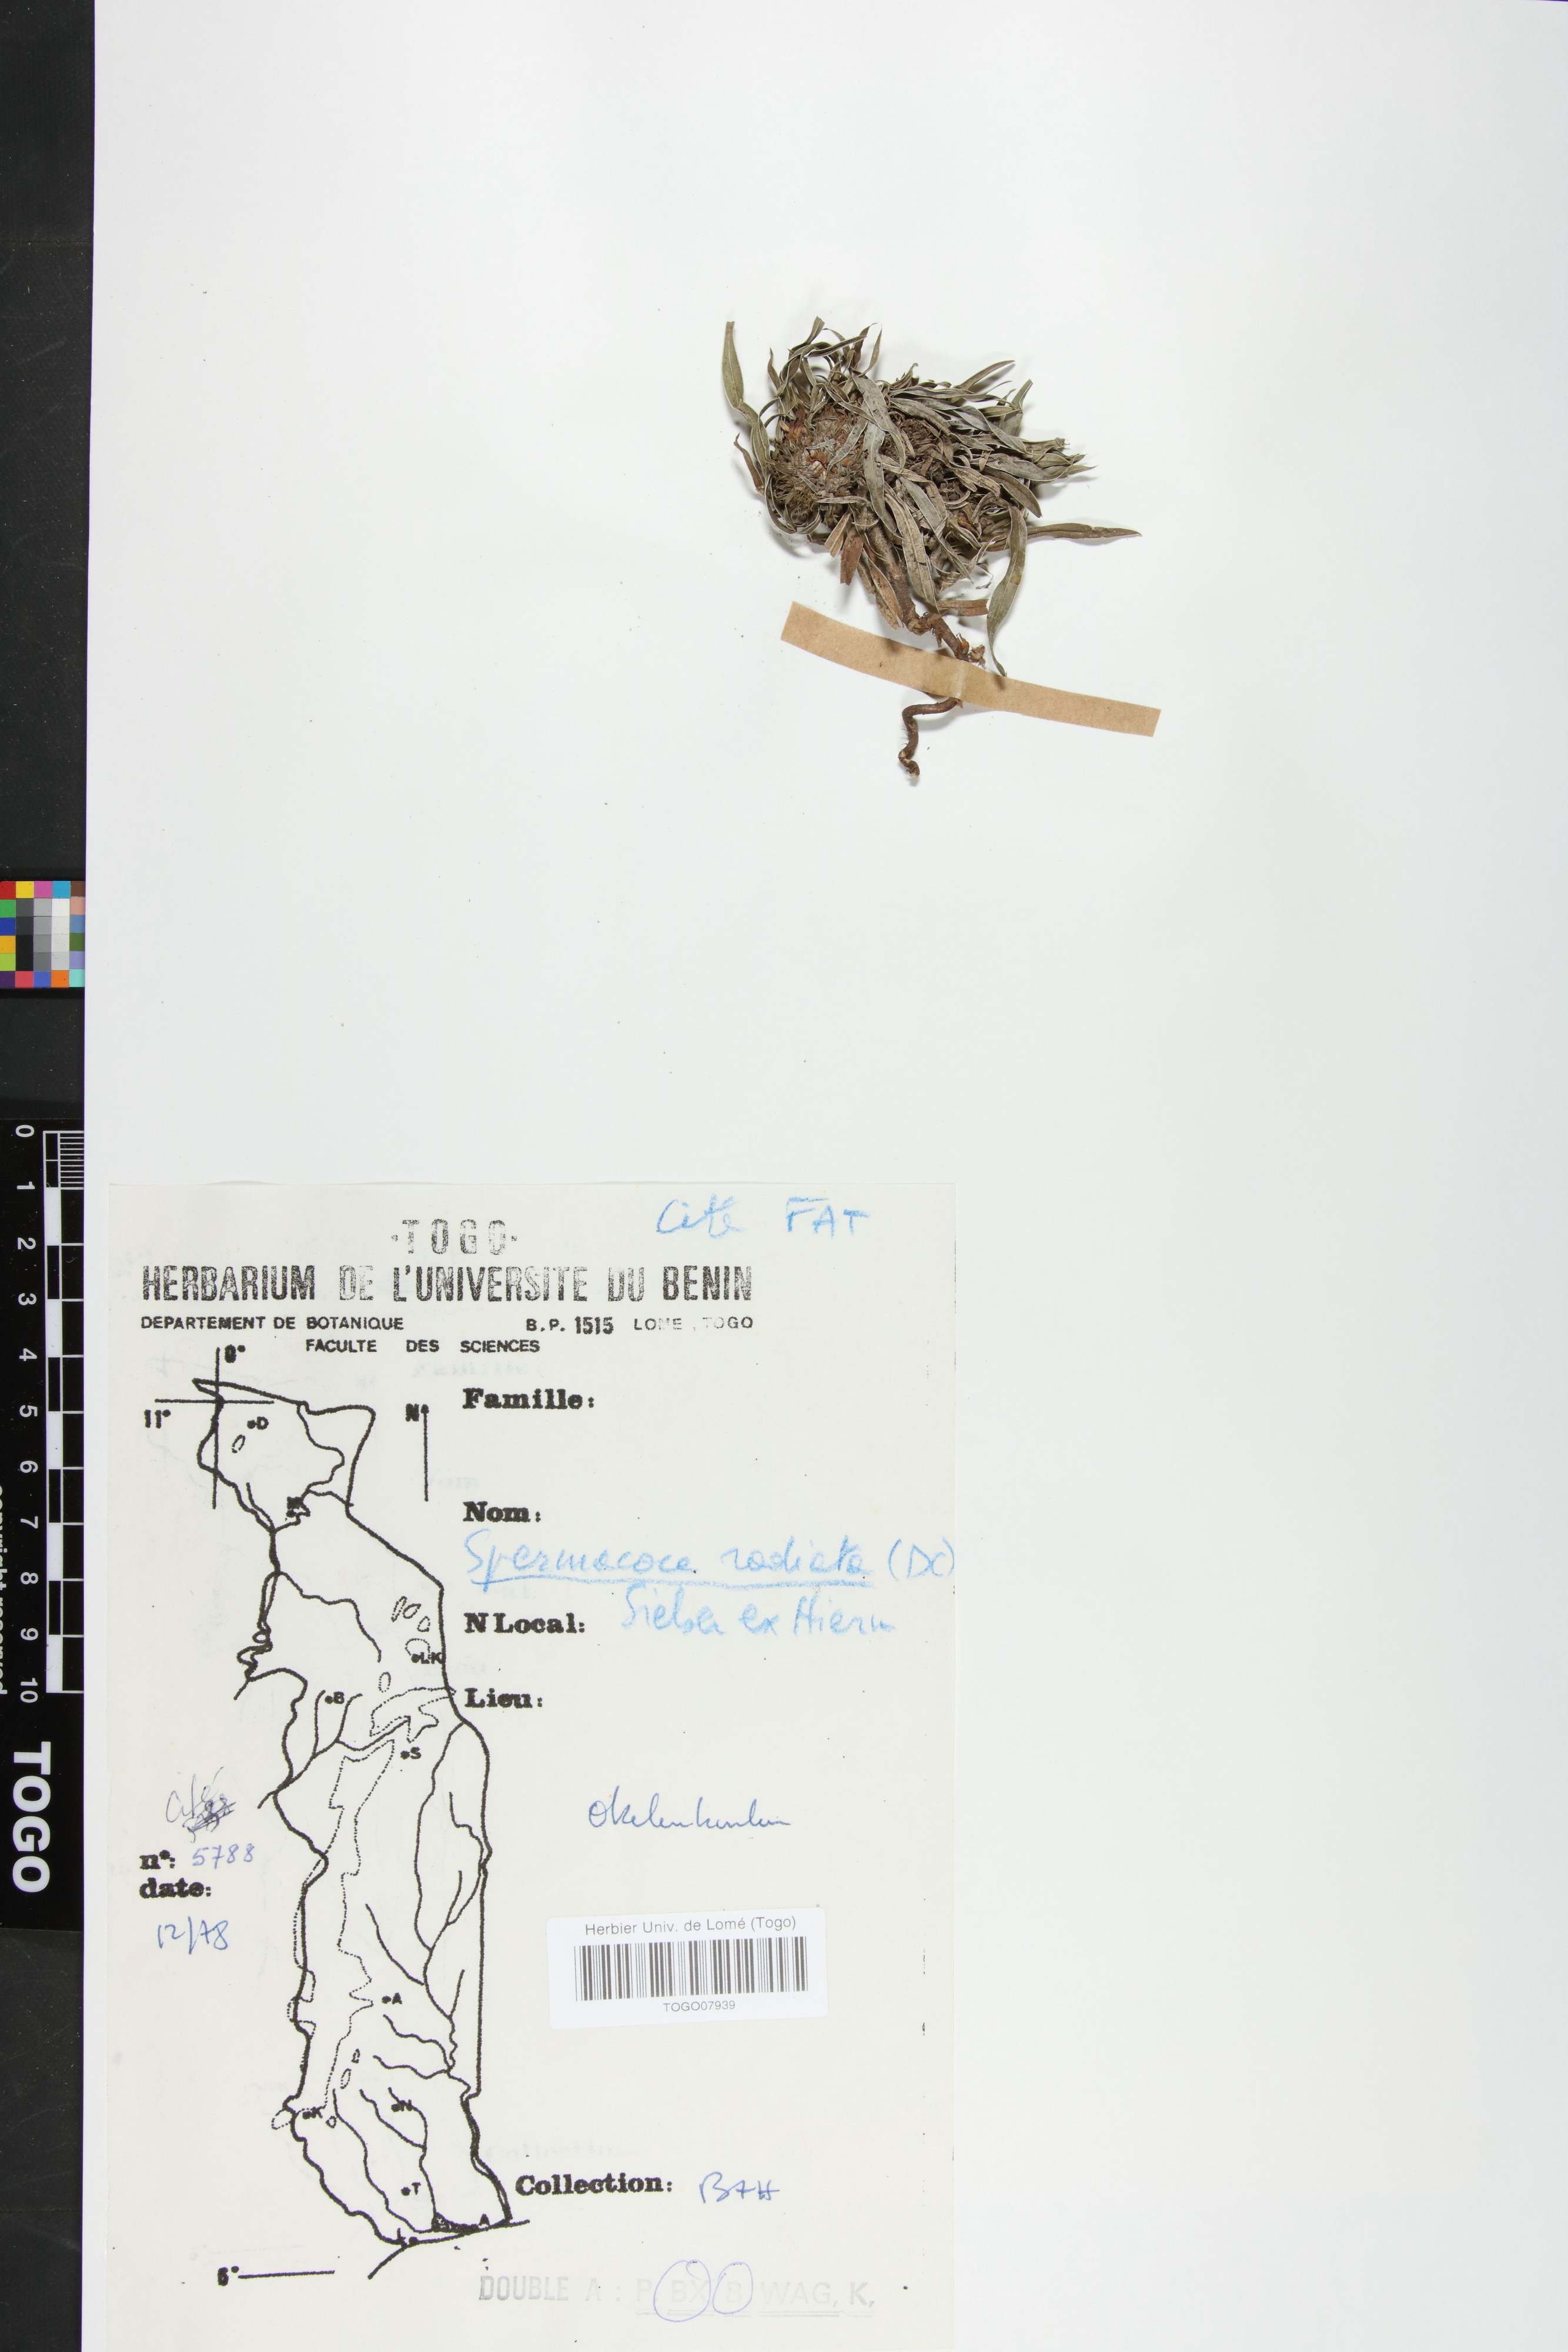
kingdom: Plantae
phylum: Tracheophyta
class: Magnoliopsida
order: Gentianales
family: Rubiaceae
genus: Spermacoce
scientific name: Spermacoce radiata
